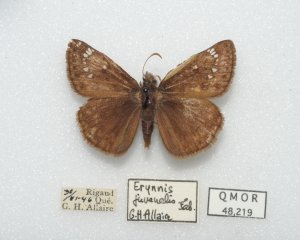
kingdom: Animalia
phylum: Arthropoda
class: Insecta
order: Lepidoptera
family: Hesperiidae
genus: Gesta
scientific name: Gesta
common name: Juvenal's Duskywing
